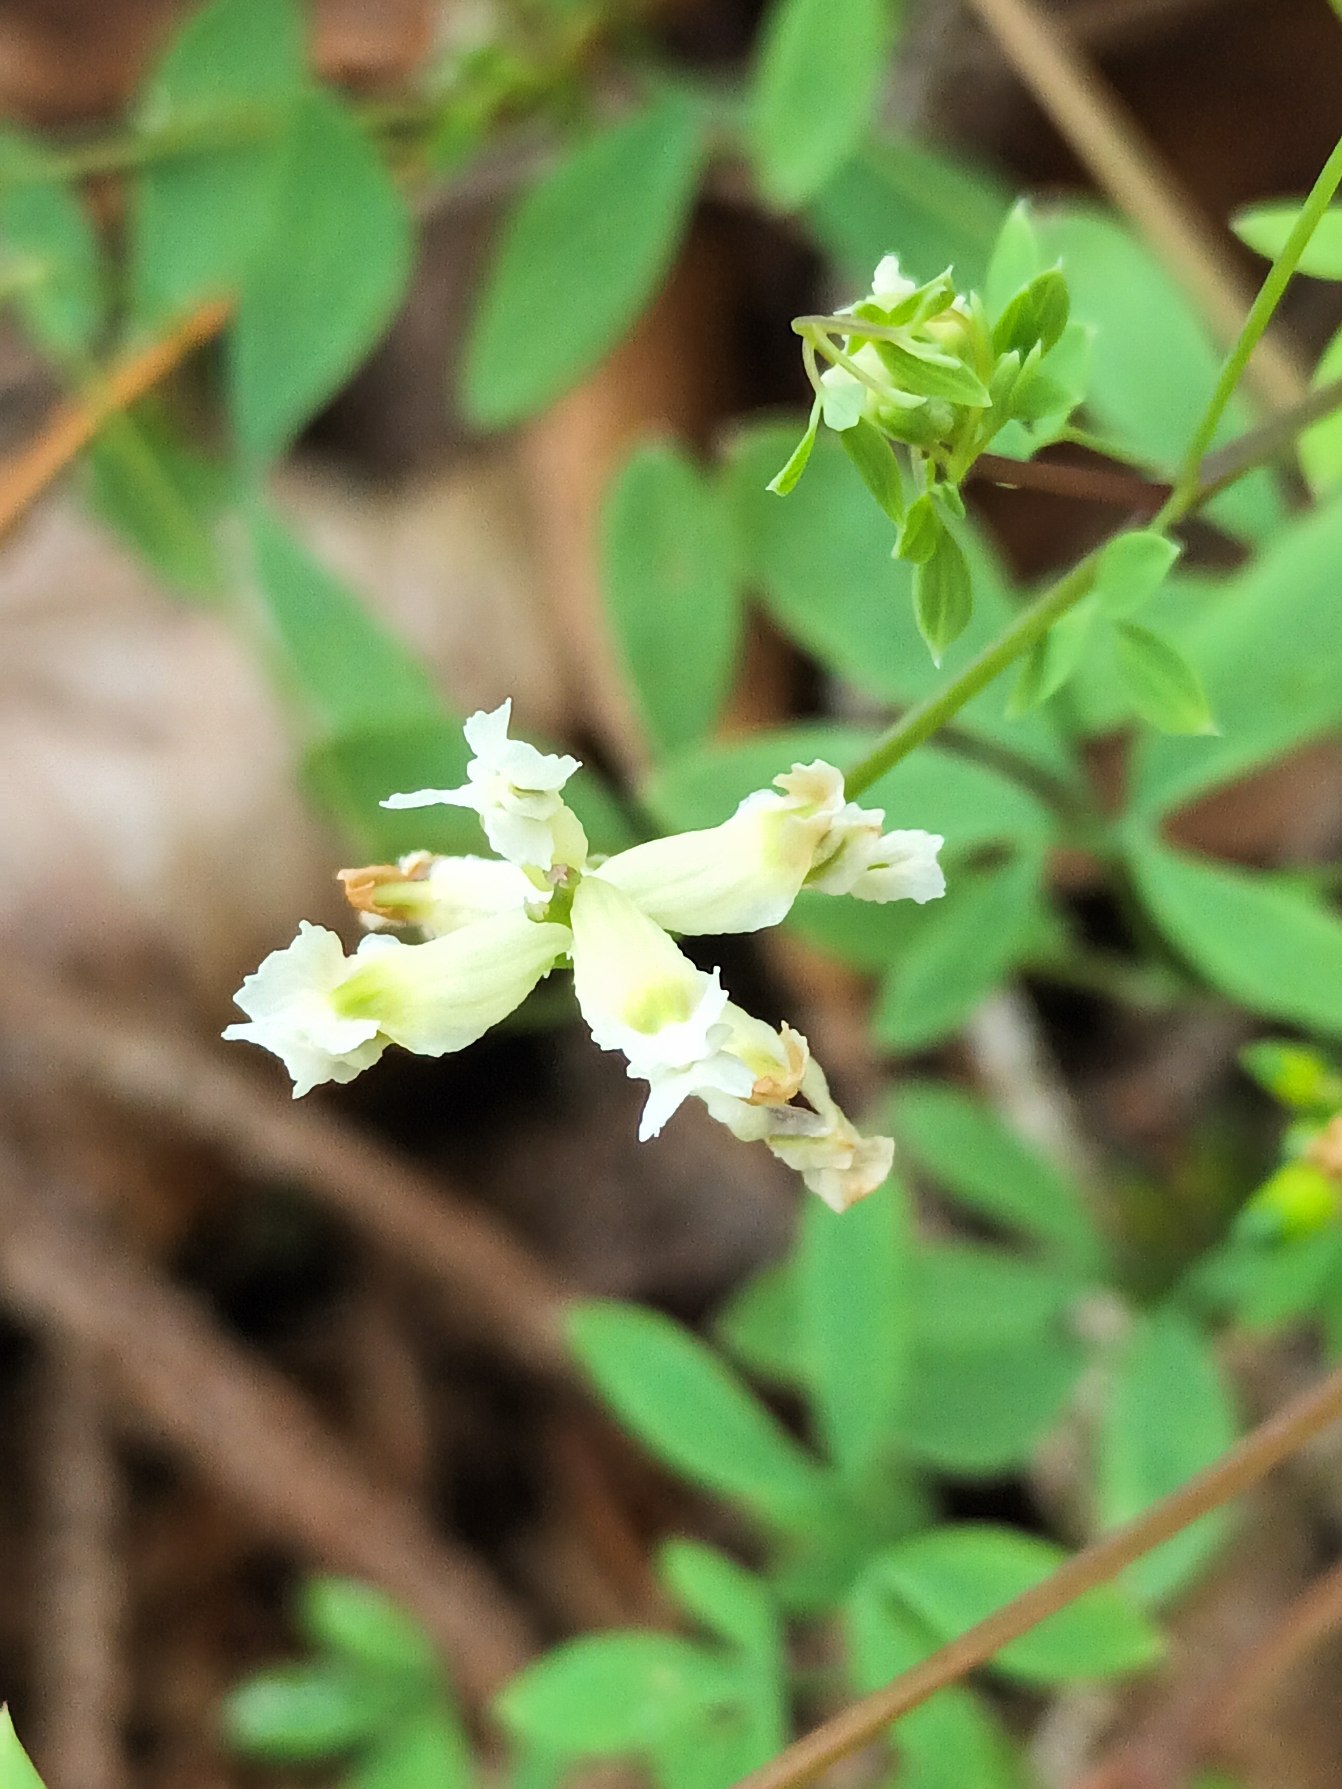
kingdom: Plantae
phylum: Tracheophyta
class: Magnoliopsida
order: Ranunculales
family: Papaveraceae
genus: Ceratocapnos
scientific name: Ceratocapnos claviculata
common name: Klatrende lærkespore
